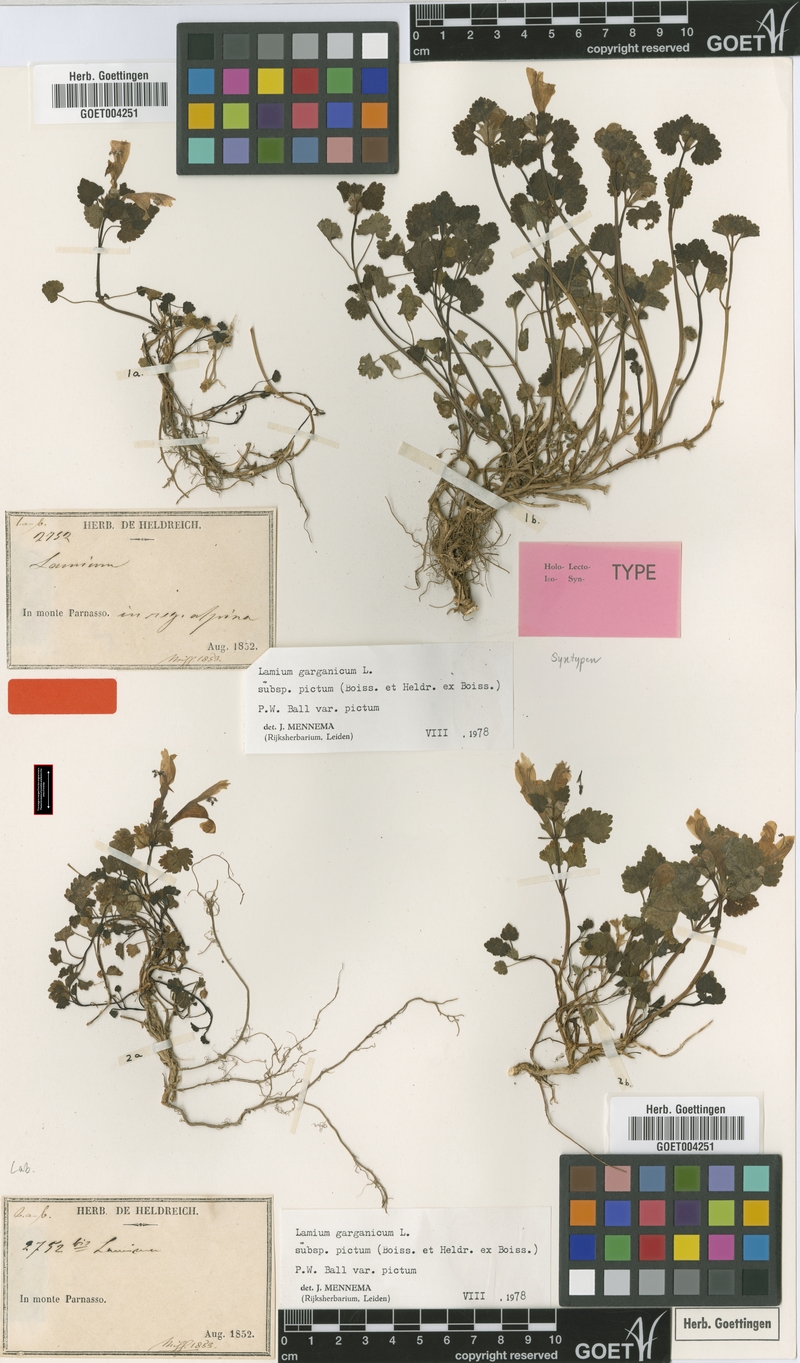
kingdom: Plantae
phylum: Tracheophyta
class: Magnoliopsida
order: Lamiales
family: Lamiaceae
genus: Lamium
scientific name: Lamium garganicum
